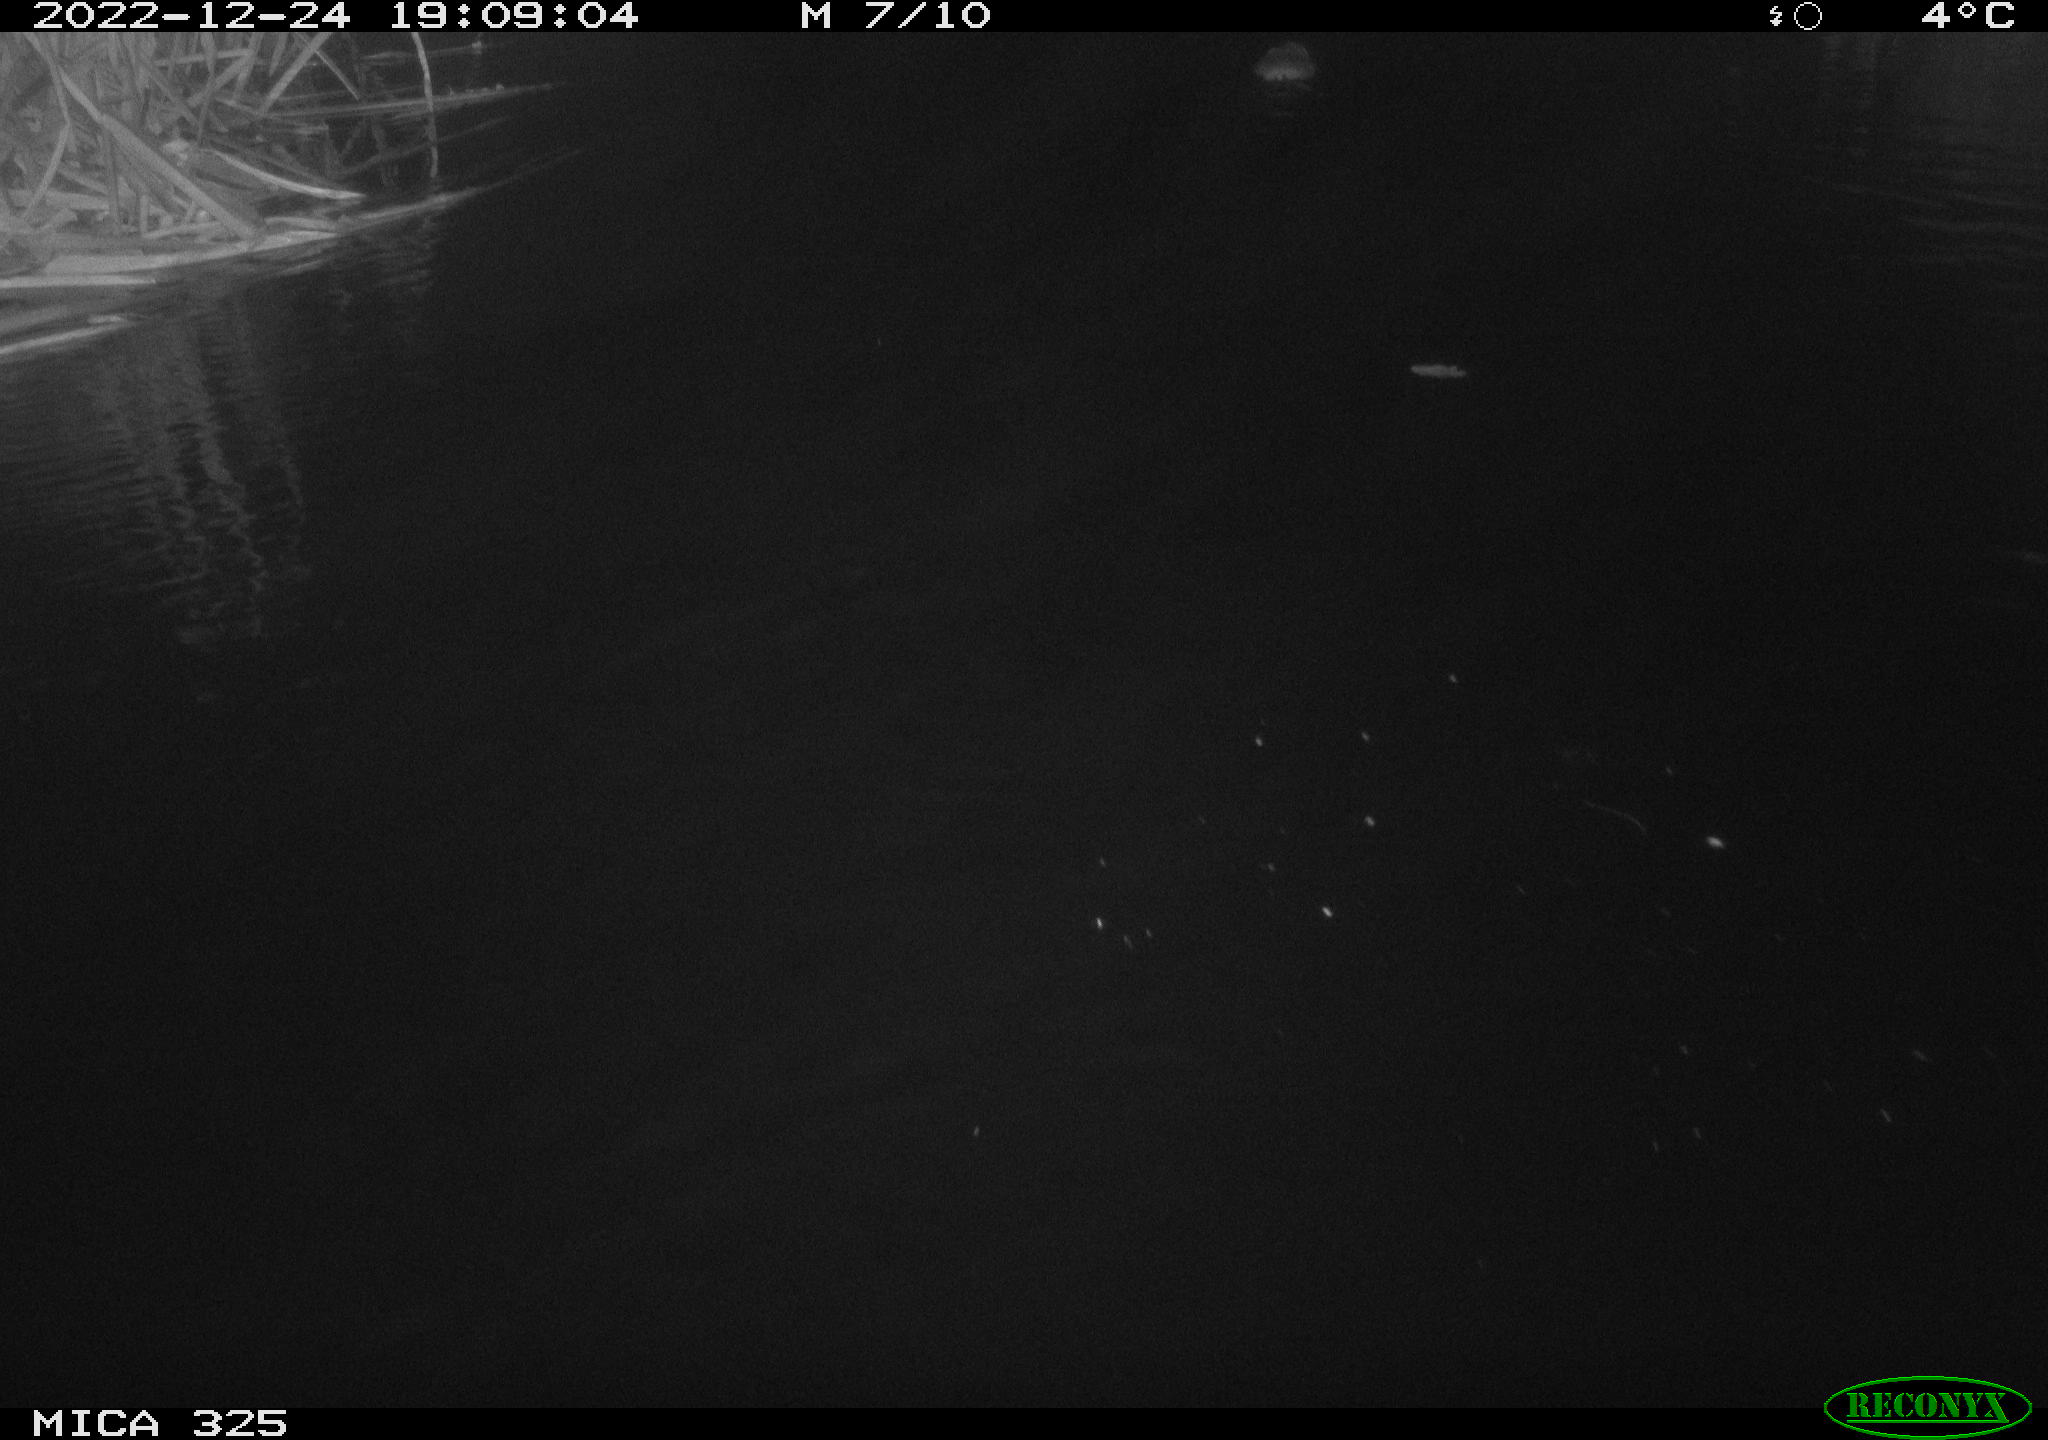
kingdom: Animalia
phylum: Chordata
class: Mammalia
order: Rodentia
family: Cricetidae
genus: Ondatra
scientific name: Ondatra zibethicus
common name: Muskrat
